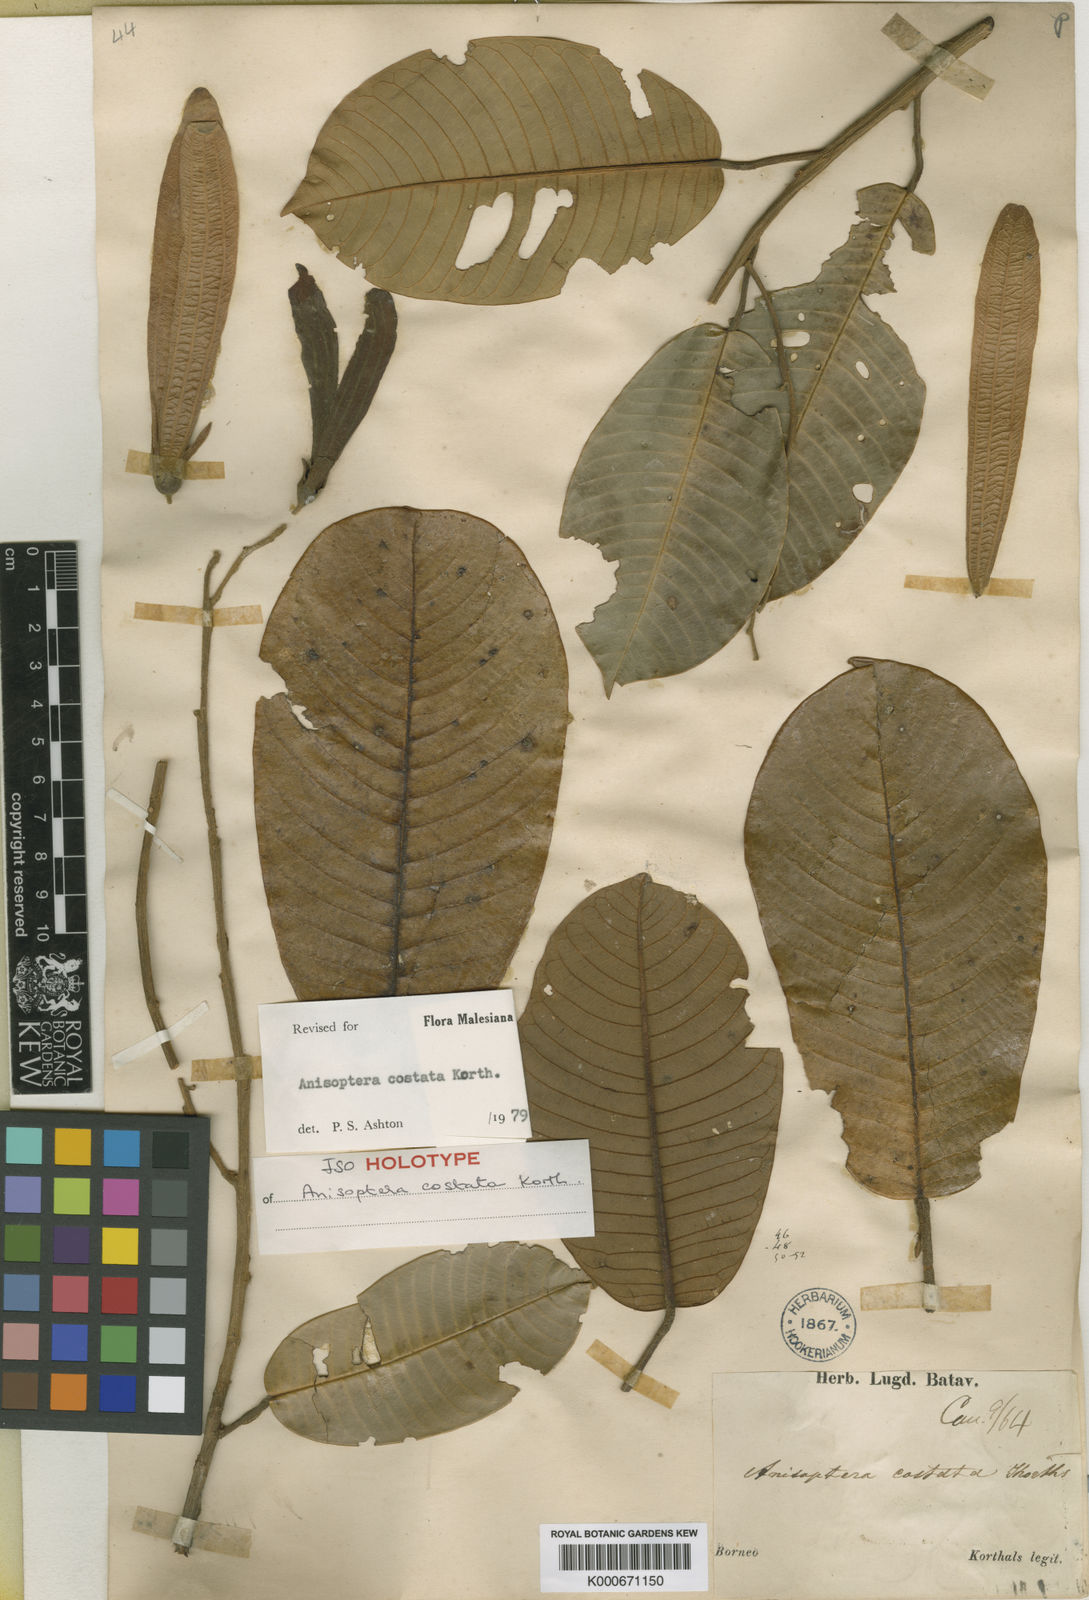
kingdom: Plantae
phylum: Tracheophyta
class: Magnoliopsida
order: Malvales
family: Dipterocarpaceae
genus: Anisoptera
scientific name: Anisoptera costata
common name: Mersawa
